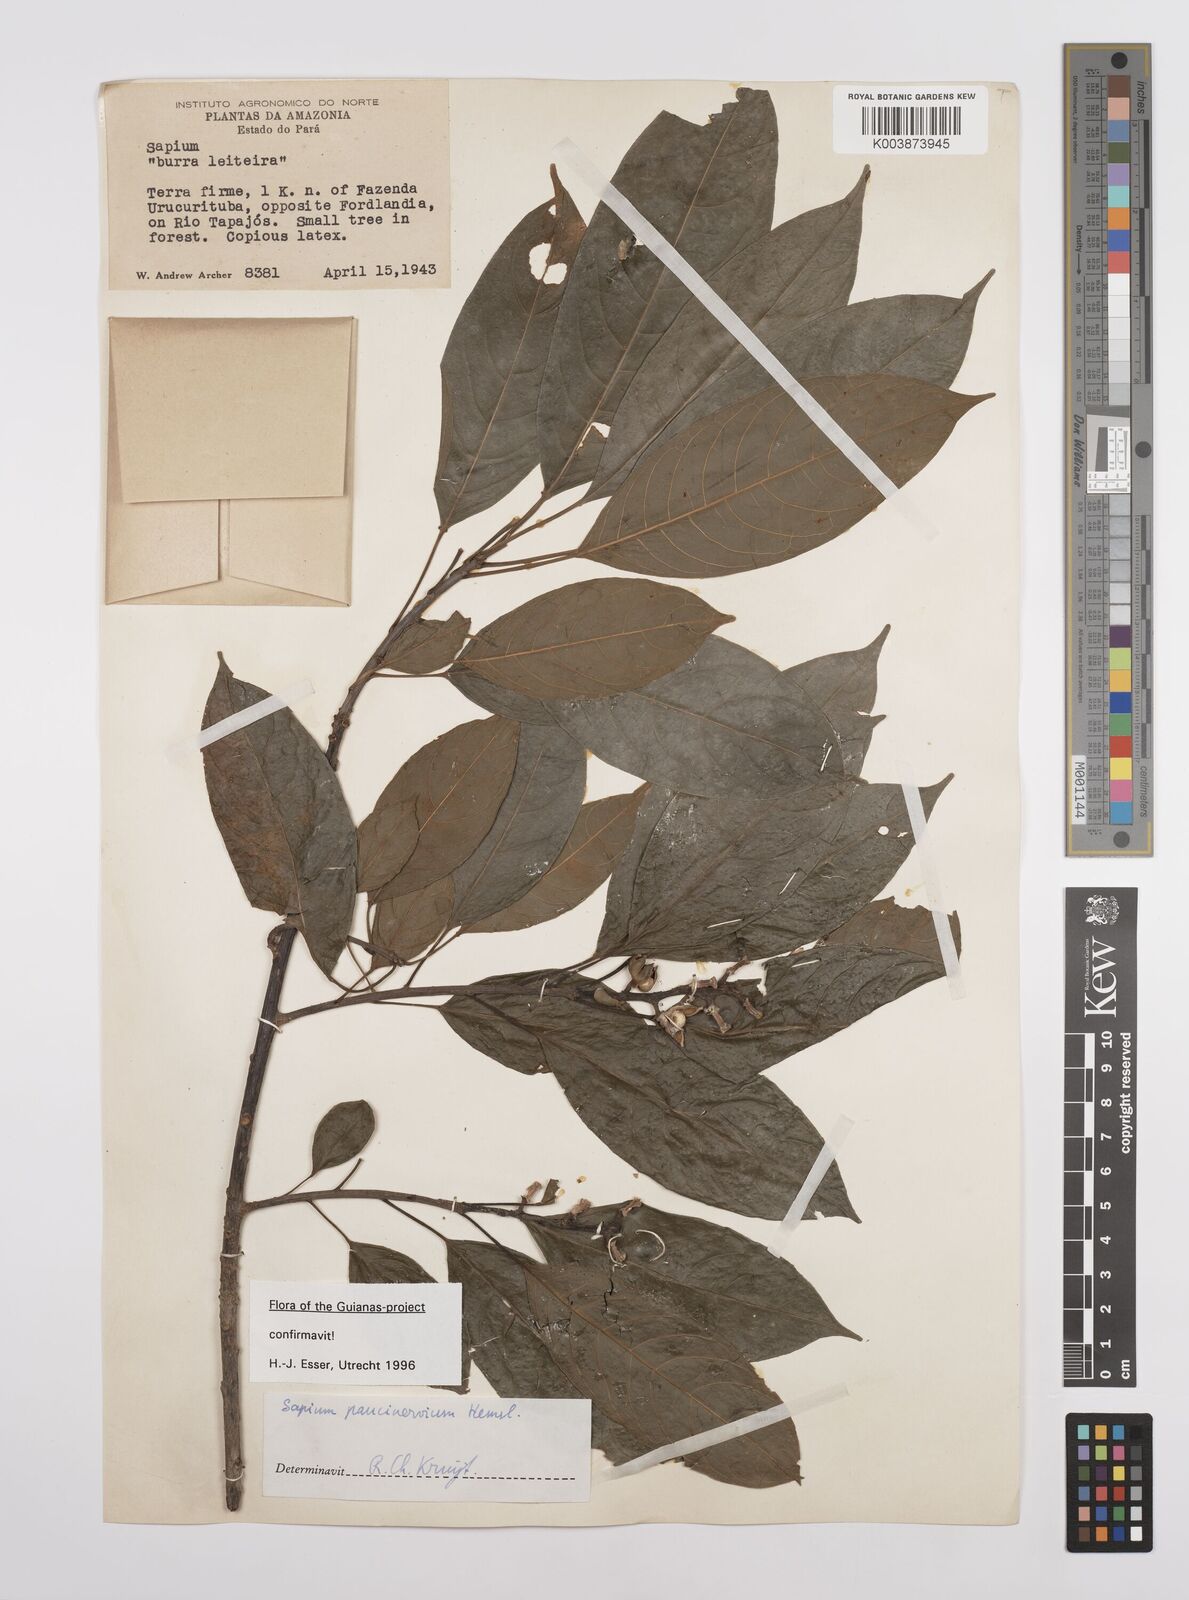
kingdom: Plantae
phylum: Tracheophyta
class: Magnoliopsida
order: Malpighiales
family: Euphorbiaceae
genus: Sapium
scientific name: Sapium paucinervium
